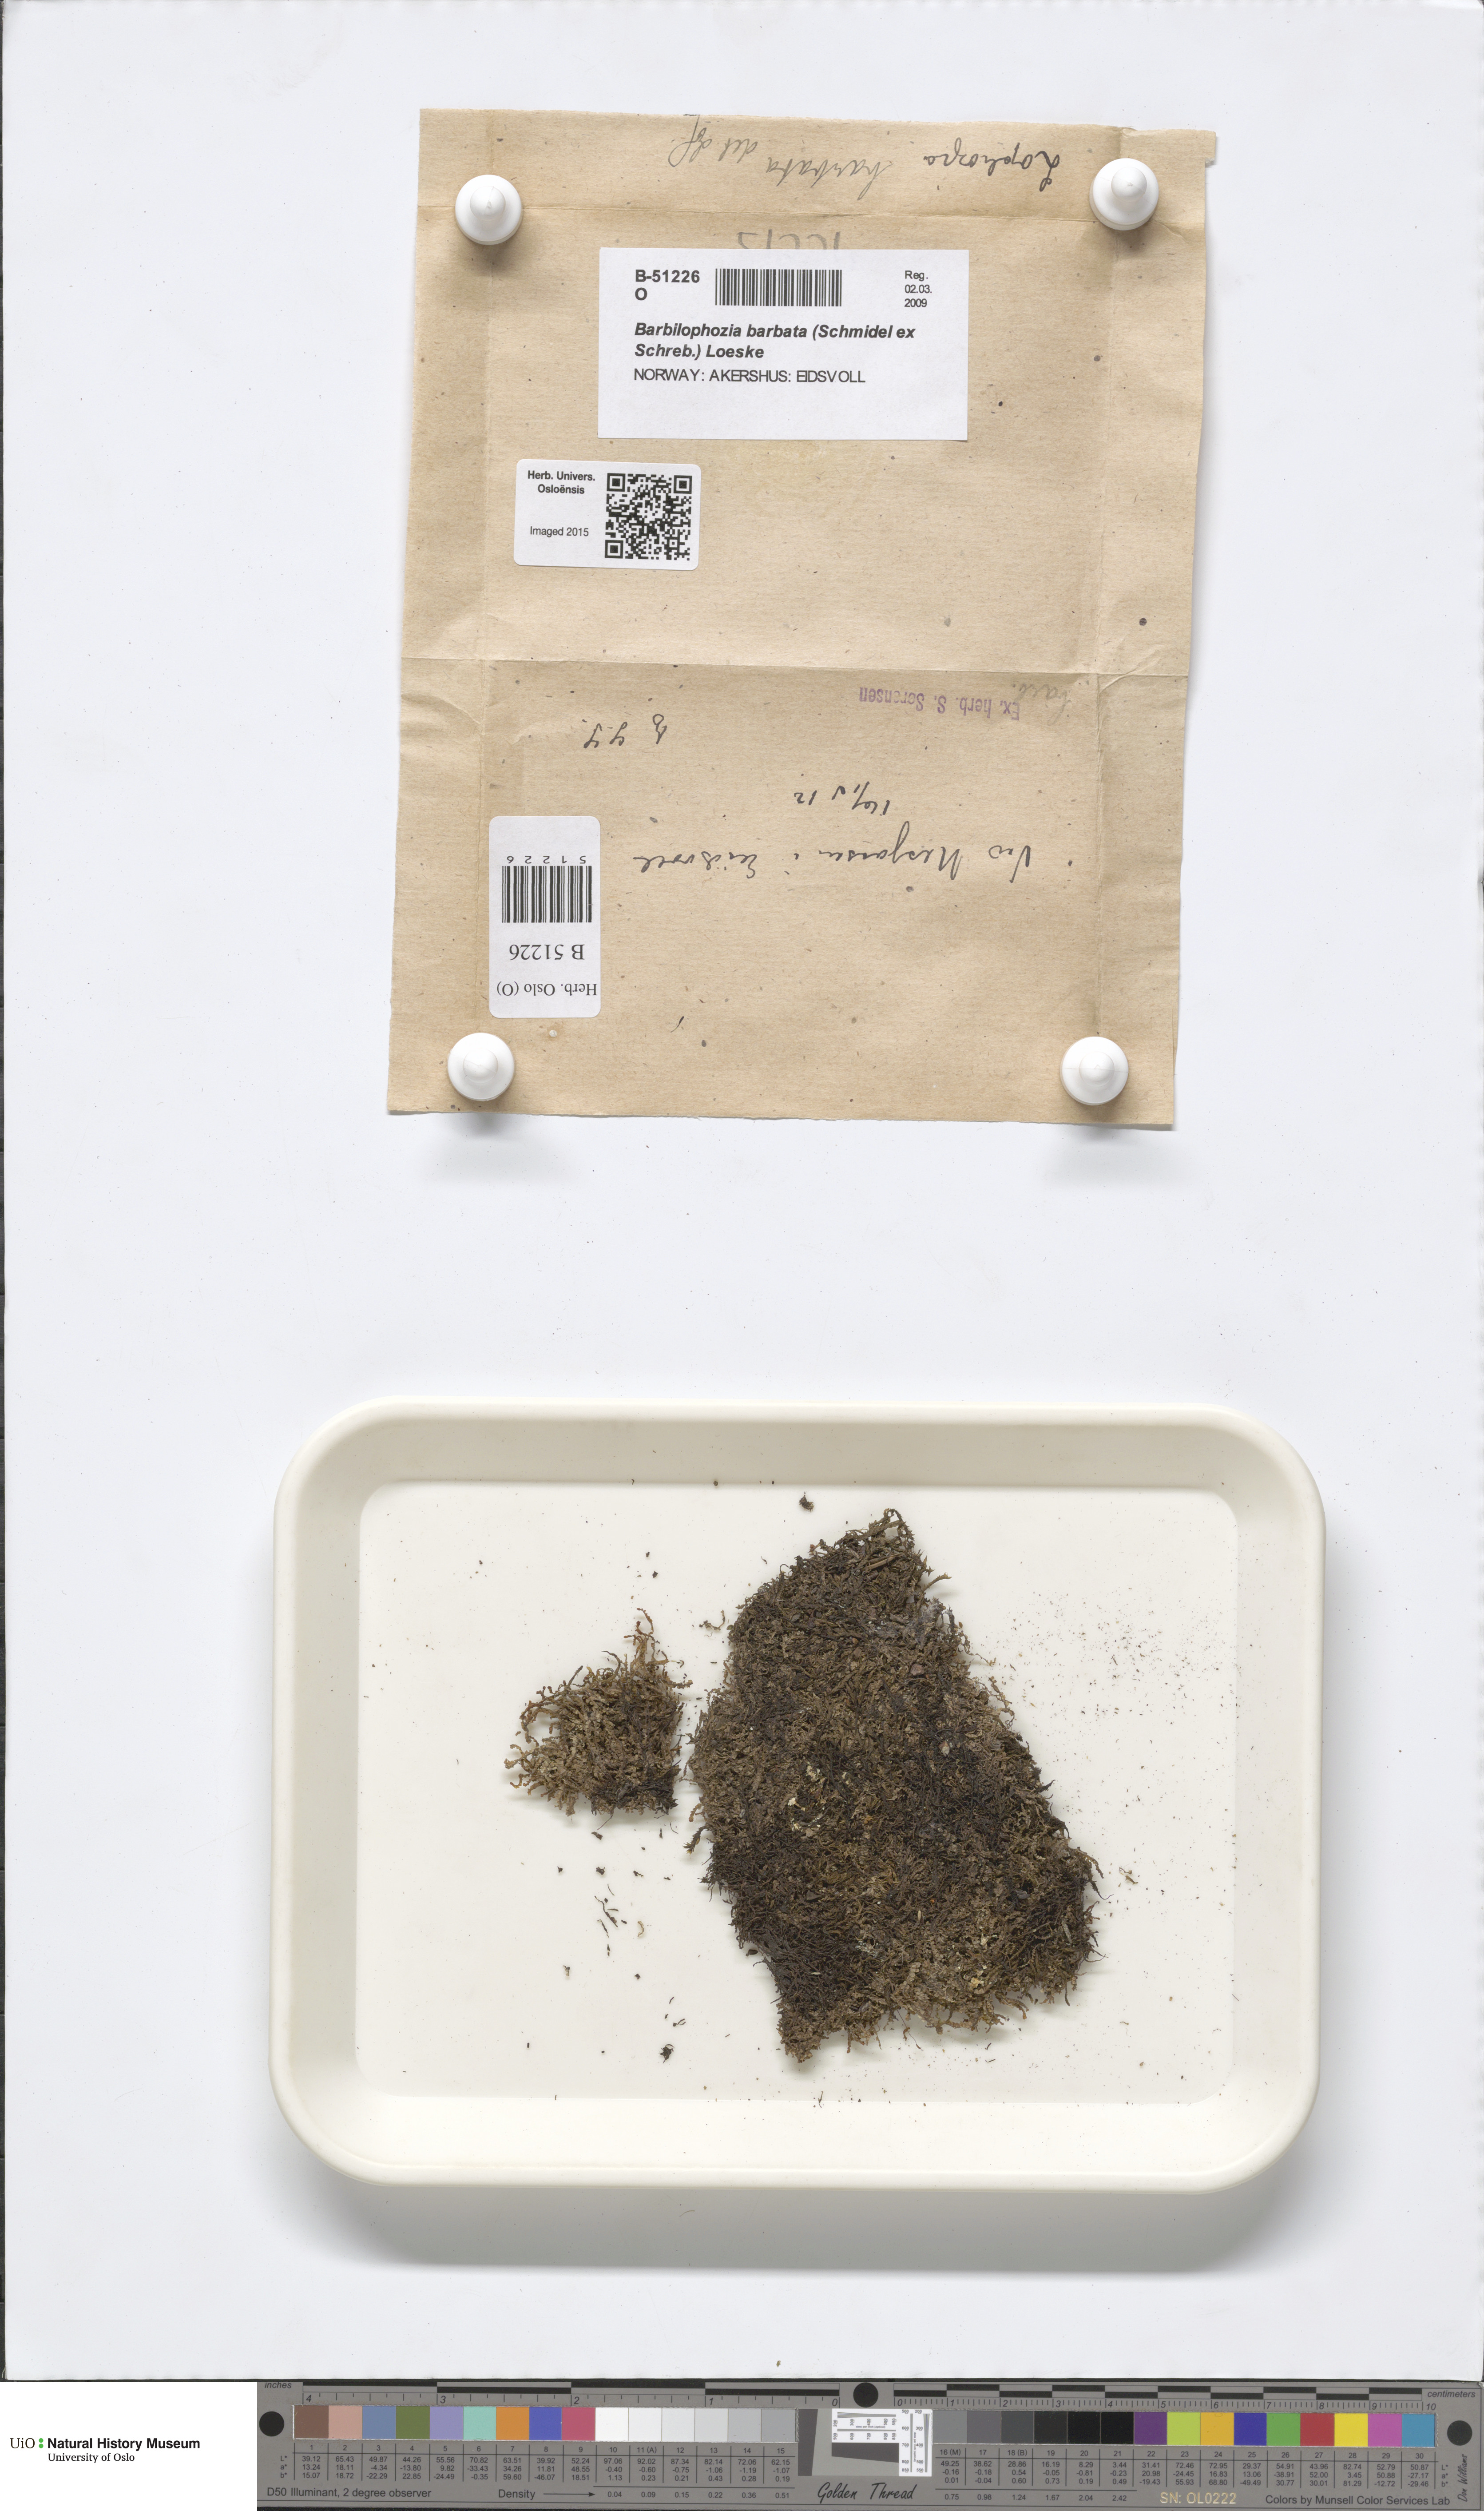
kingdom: Plantae
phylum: Marchantiophyta
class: Jungermanniopsida
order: Jungermanniales
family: Anastrophyllaceae
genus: Barbilophozia
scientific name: Barbilophozia barbata
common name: Bearded pawwort
